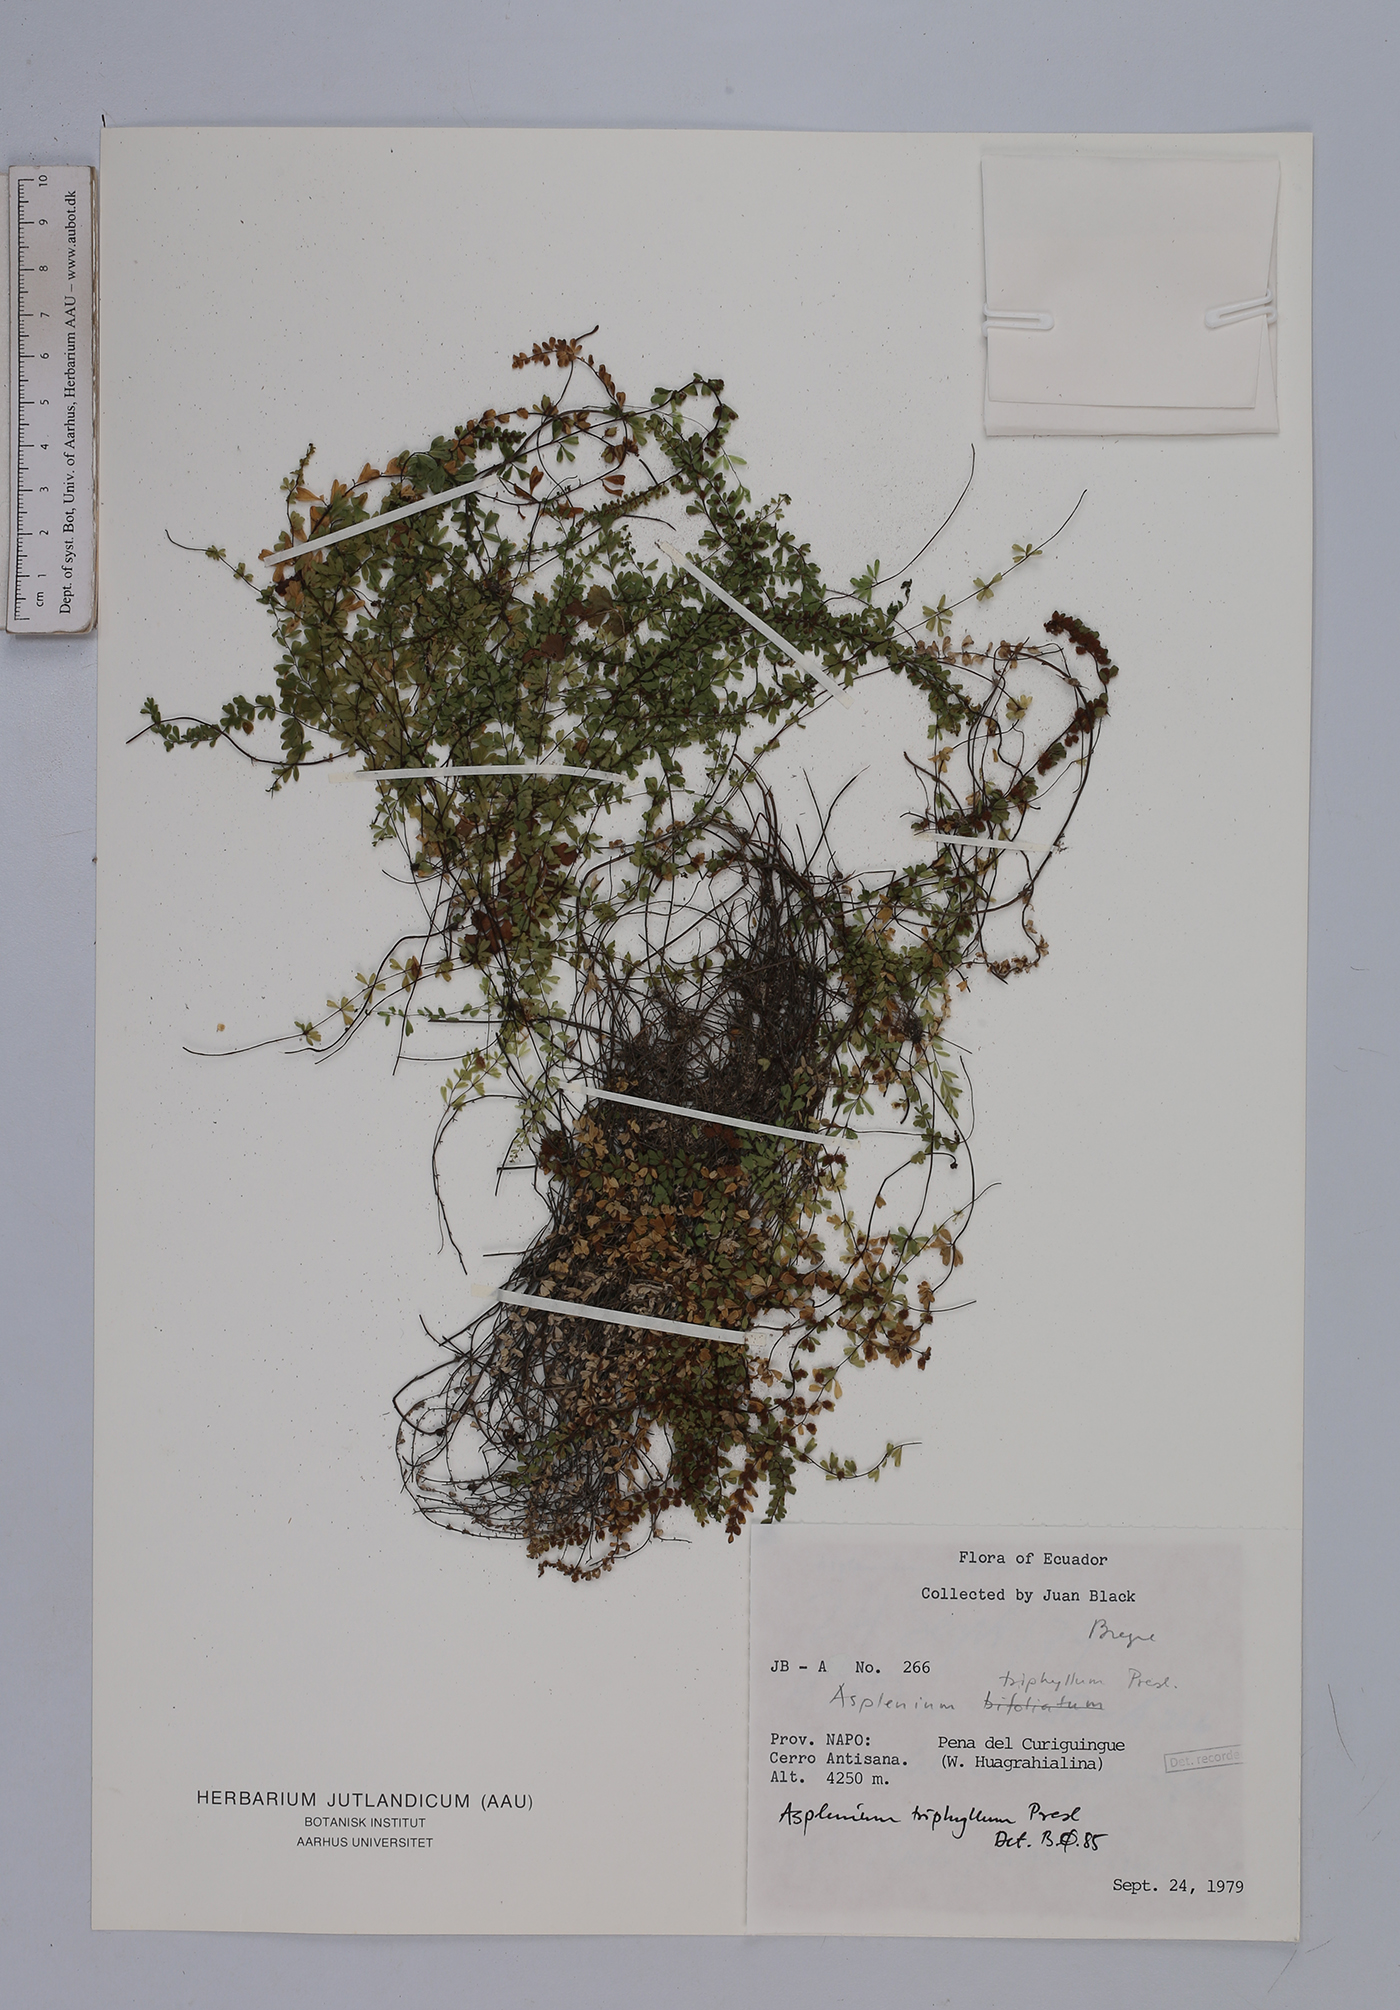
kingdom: Plantae
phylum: Tracheophyta
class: Polypodiopsida
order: Polypodiales
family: Aspleniaceae
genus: Asplenium
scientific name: Asplenium triphyllum
